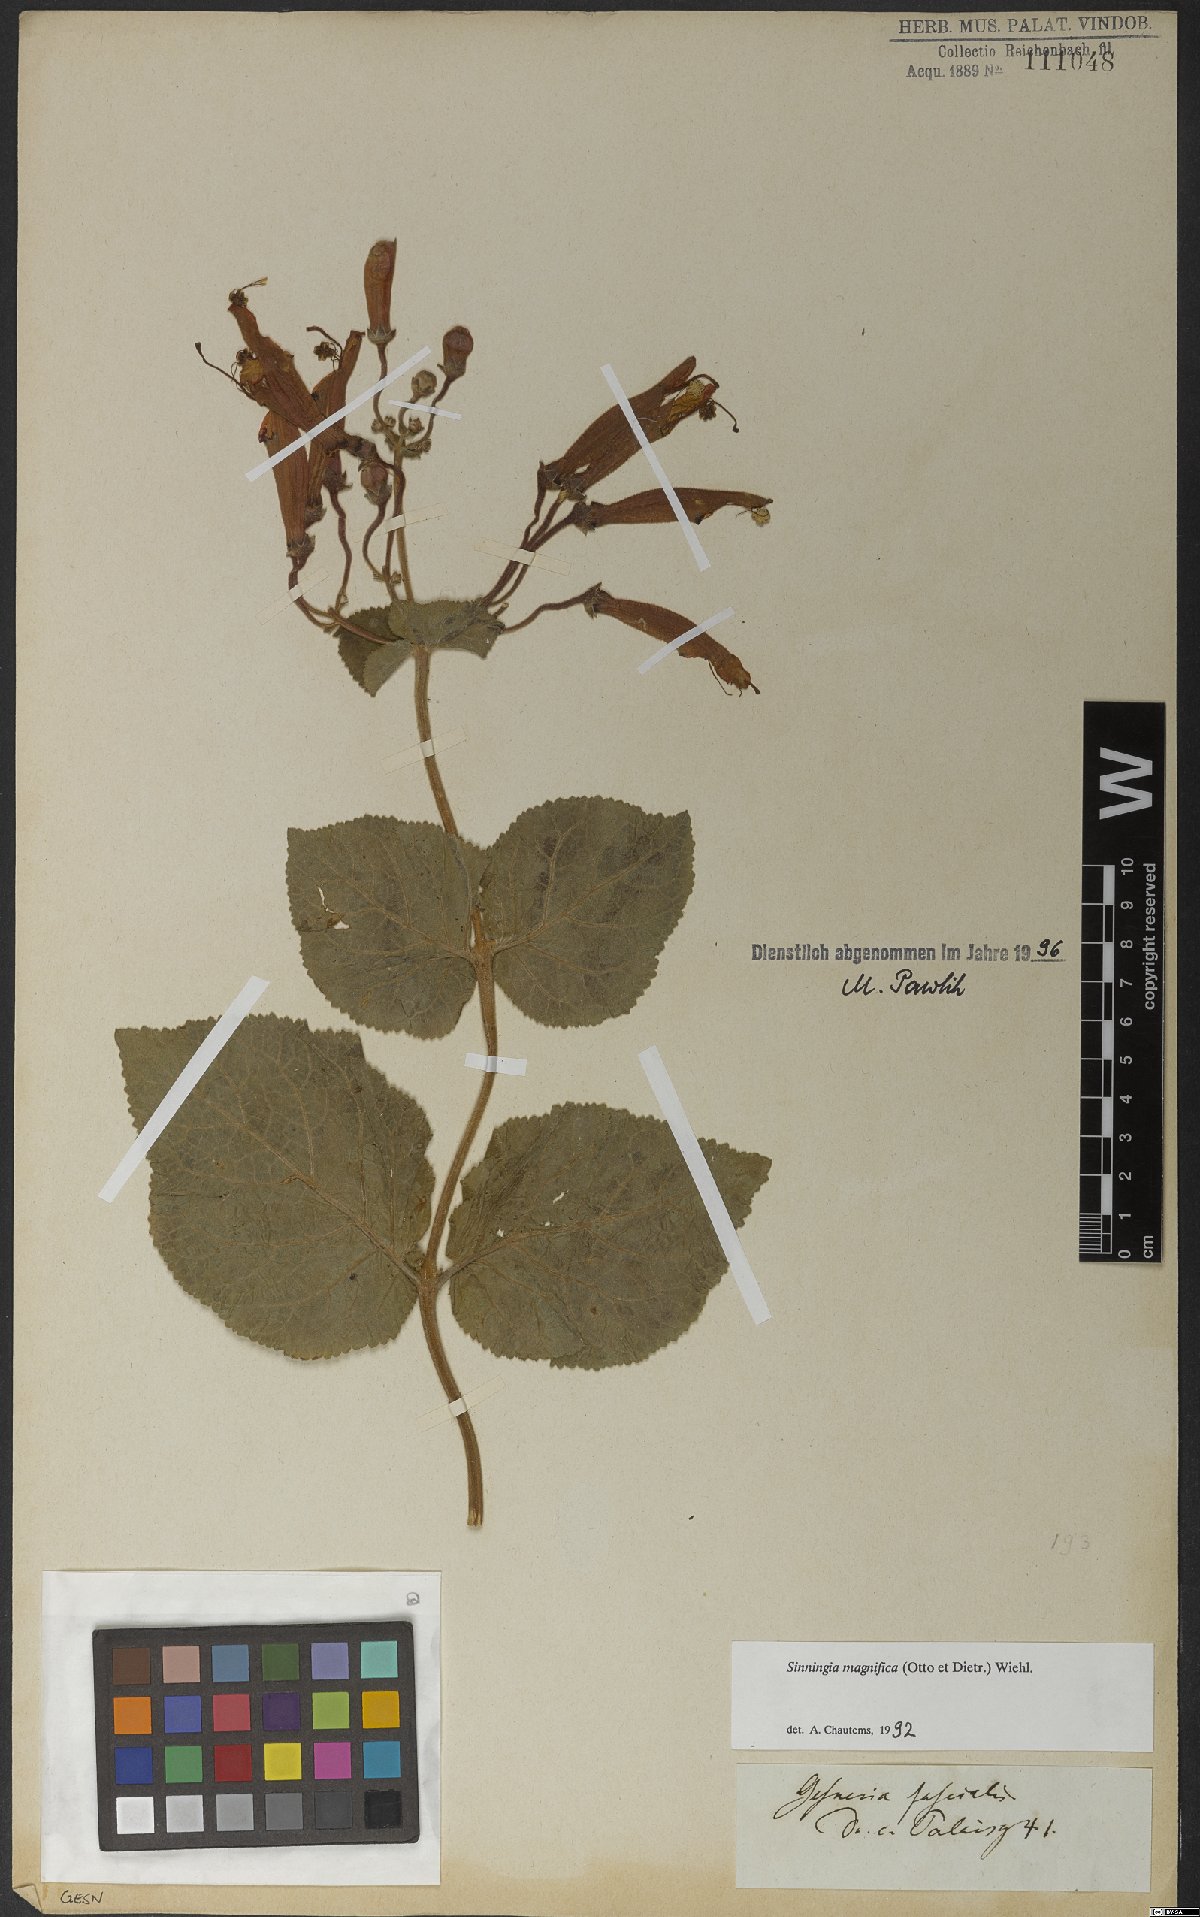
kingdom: Plantae
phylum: Tracheophyta
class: Magnoliopsida
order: Lamiales
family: Gesneriaceae
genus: Sinningia
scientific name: Sinningia magnifica
